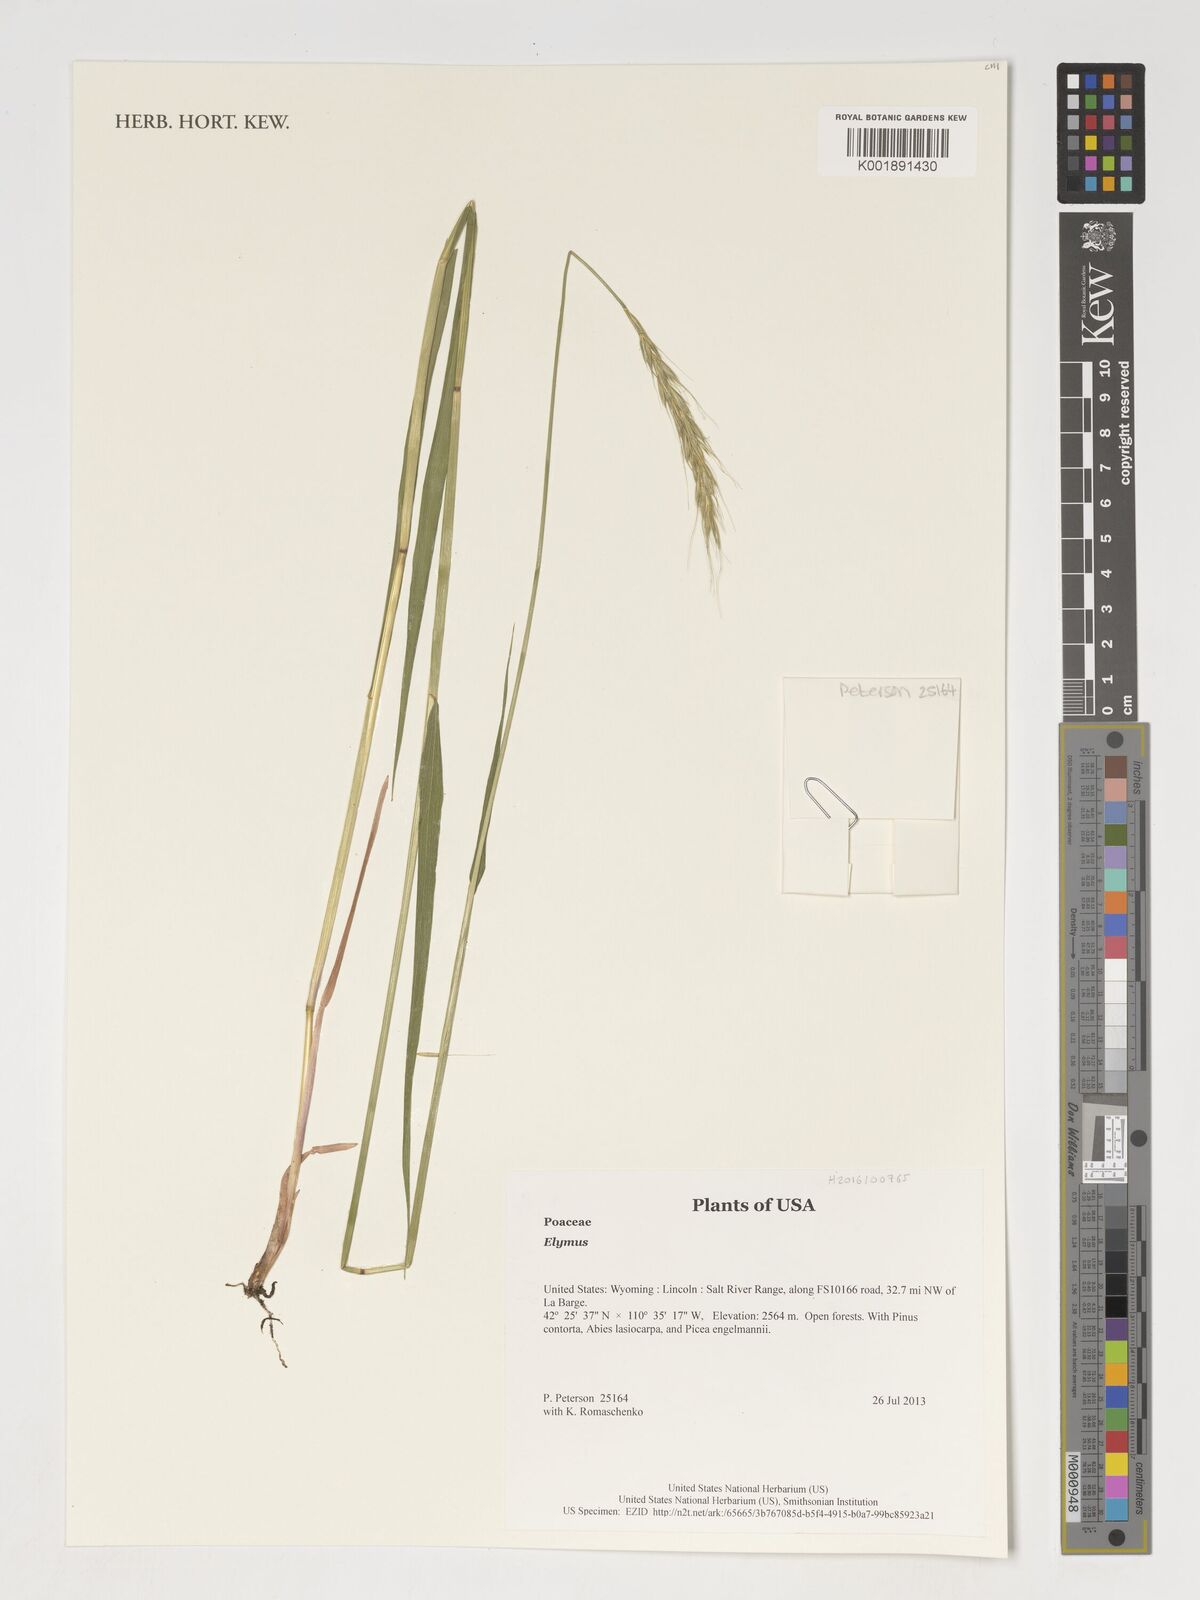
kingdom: Plantae
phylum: Tracheophyta
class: Liliopsida
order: Poales
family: Poaceae
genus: Elymus
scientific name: Elymus
